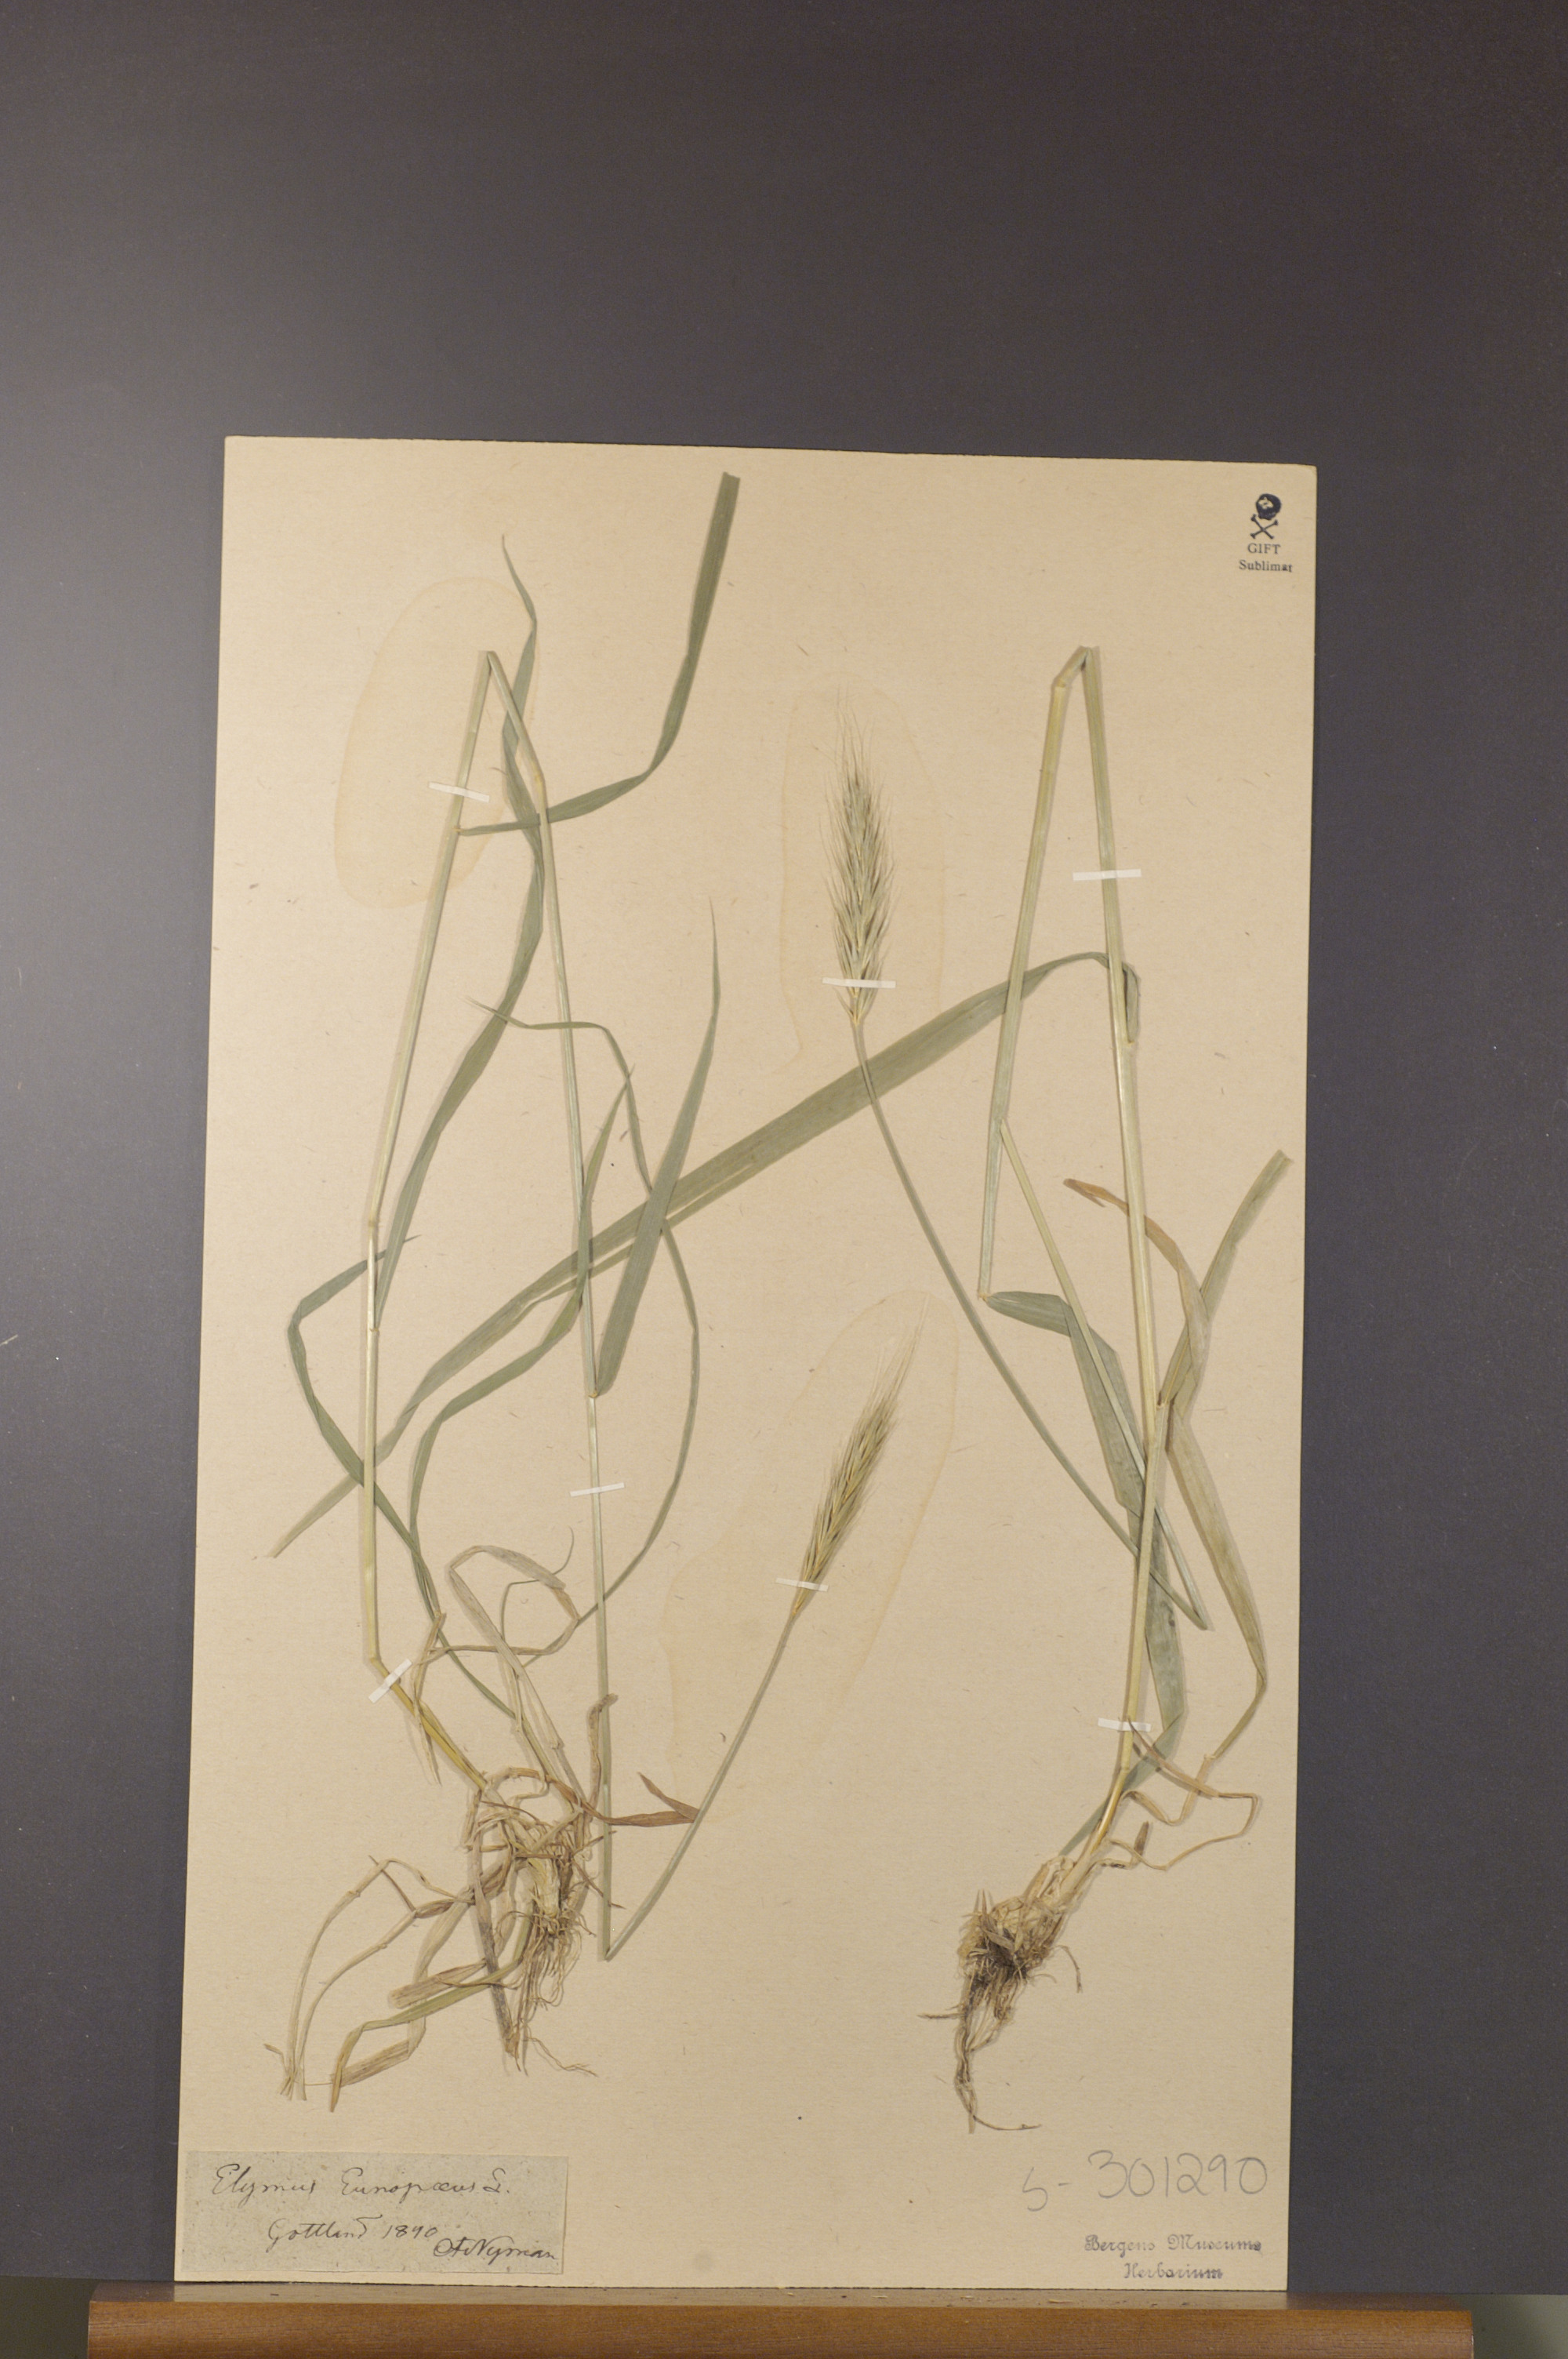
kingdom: Plantae
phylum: Tracheophyta
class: Liliopsida
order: Poales
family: Poaceae
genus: Hordelymus
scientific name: Hordelymus europaeus
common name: Wood-barley
